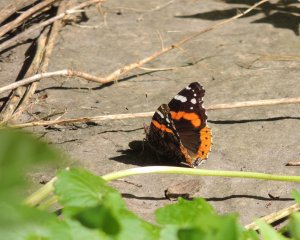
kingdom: Animalia
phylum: Arthropoda
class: Insecta
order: Lepidoptera
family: Nymphalidae
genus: Vanessa
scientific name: Vanessa atalanta
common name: Red Admiral
